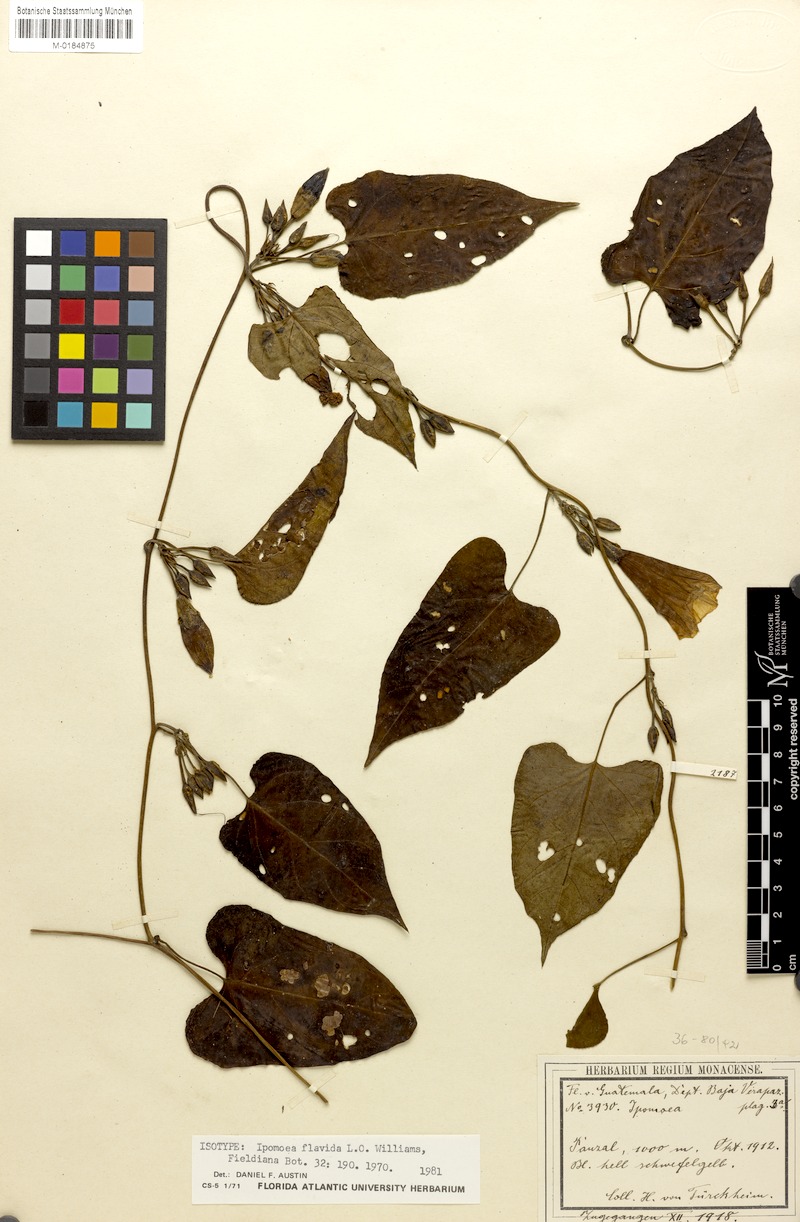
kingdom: Plantae
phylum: Tracheophyta
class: Magnoliopsida
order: Solanales
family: Convolvulaceae
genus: Ipomoea
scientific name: Ipomoea lindenii
